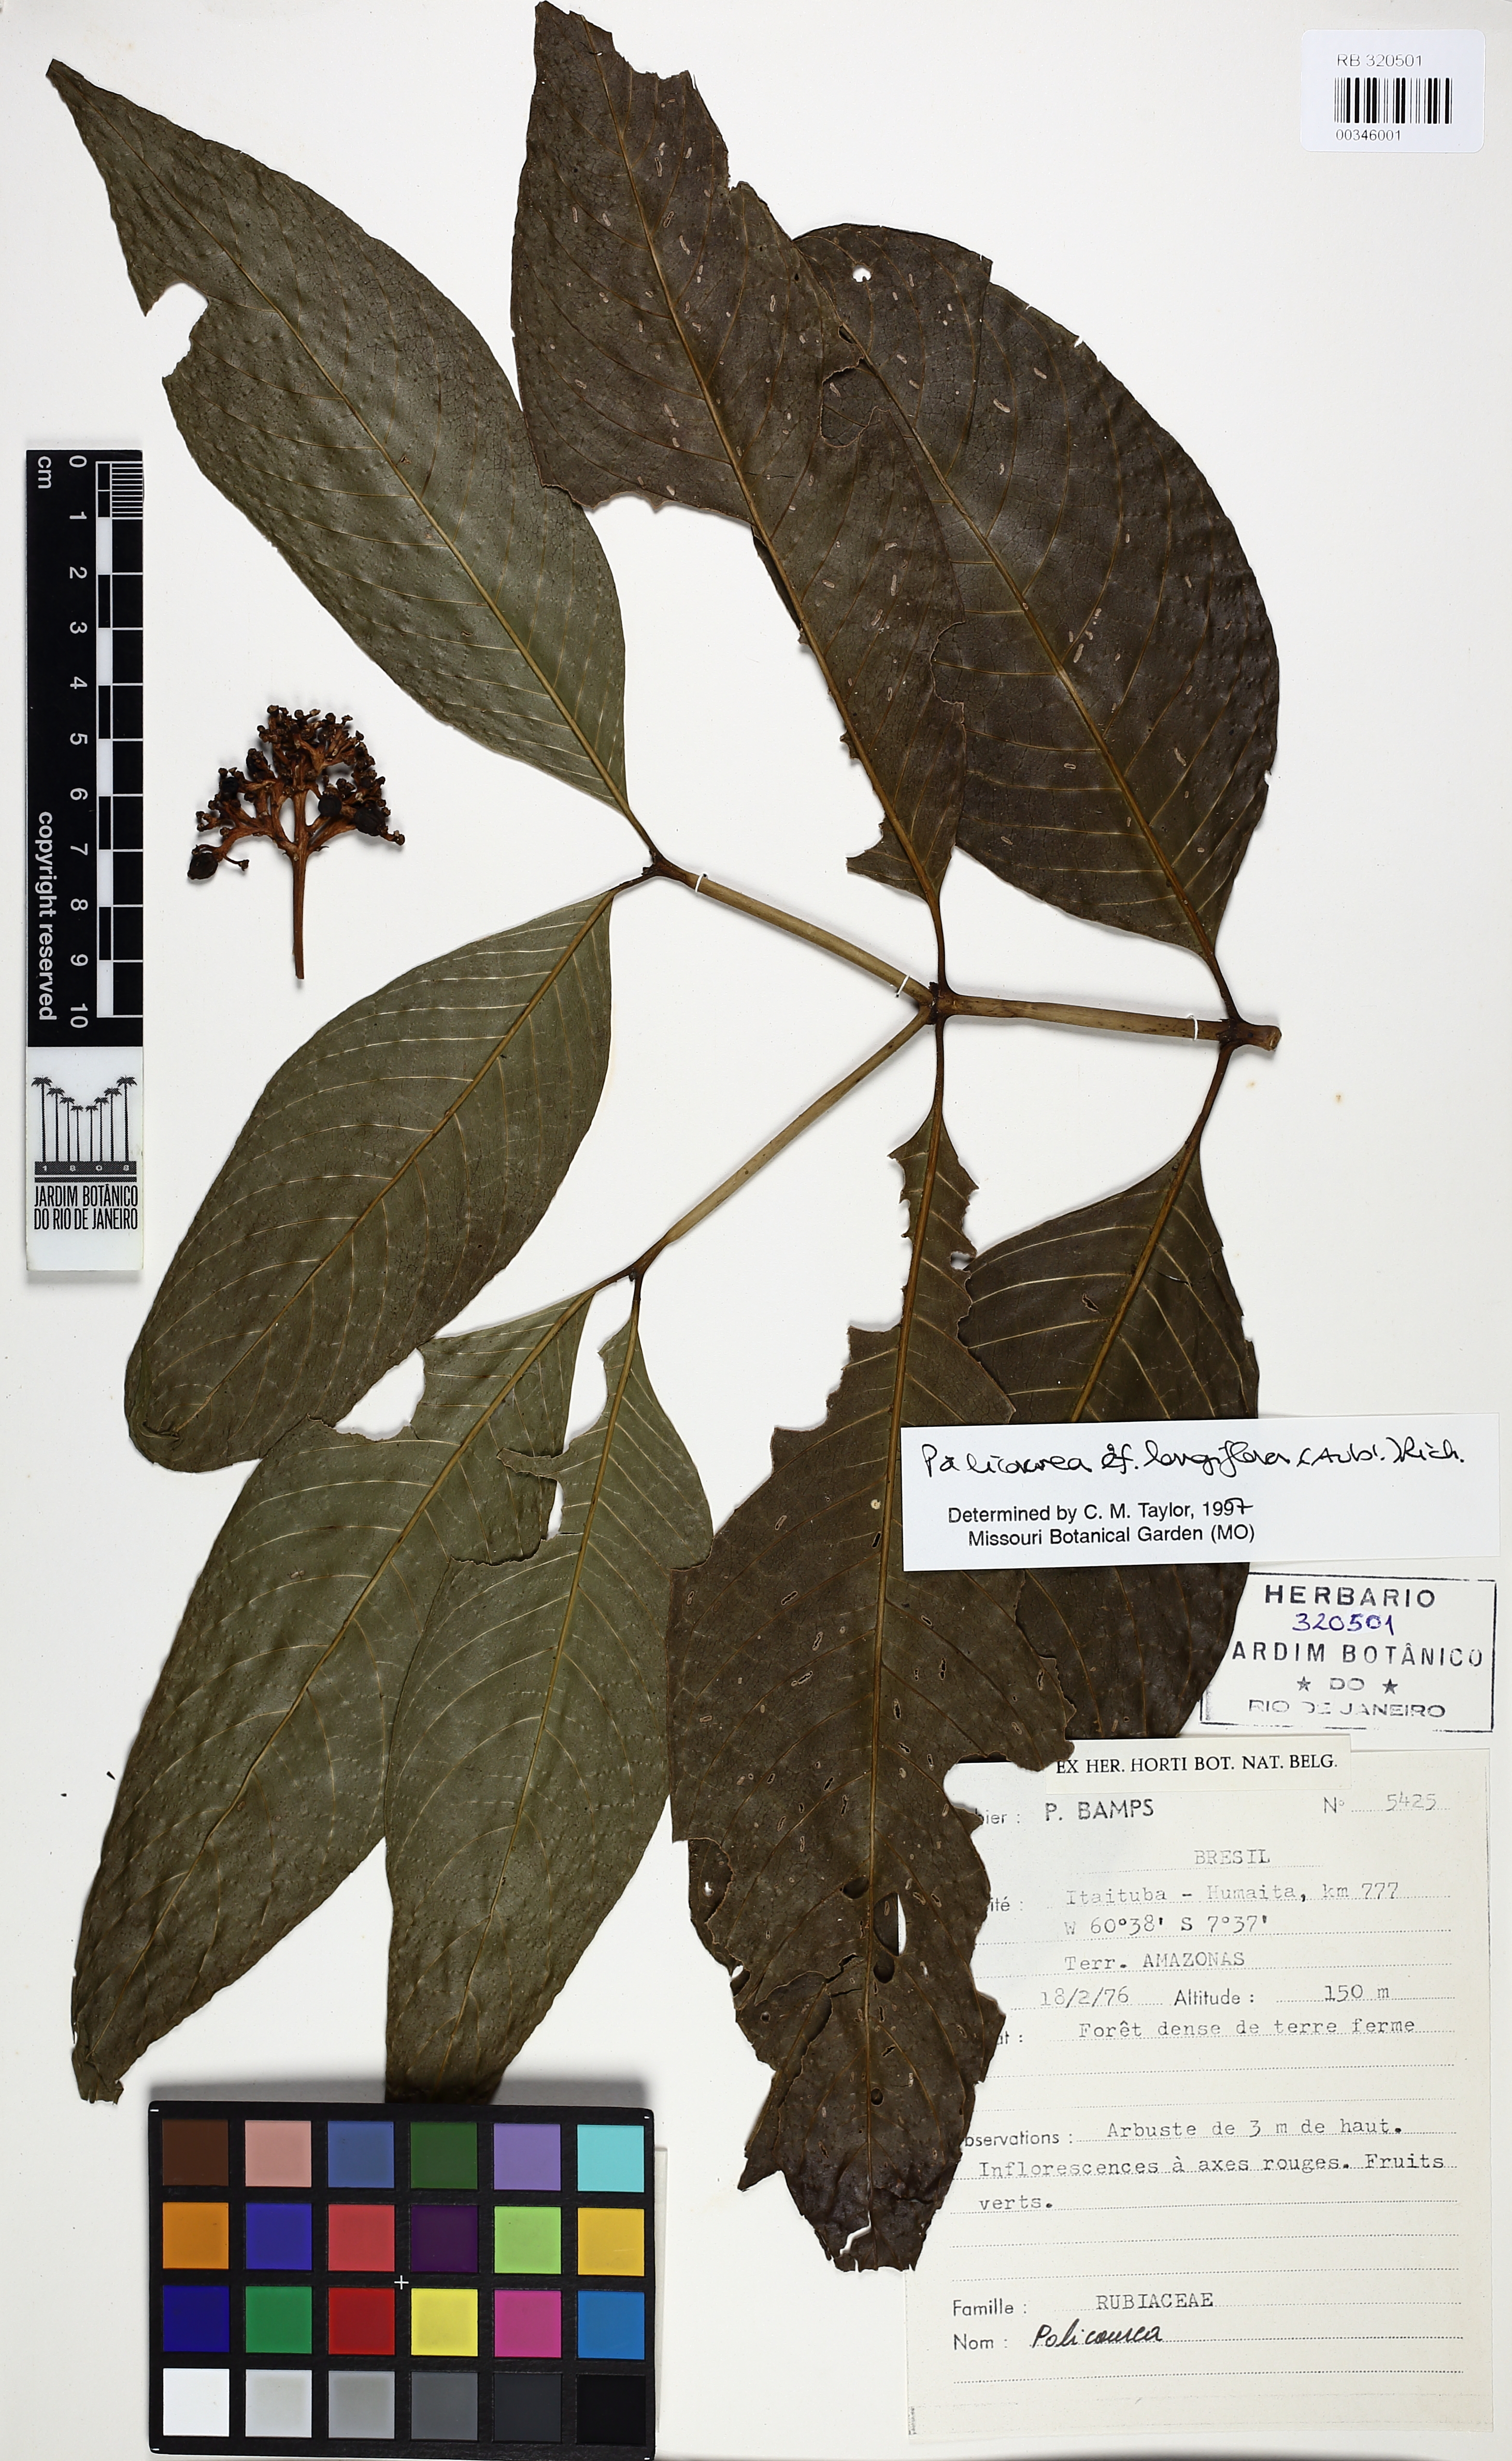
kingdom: Plantae
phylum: Tracheophyta
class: Magnoliopsida
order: Gentianales
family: Rubiaceae
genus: Palicourea
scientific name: Palicourea longiflora
